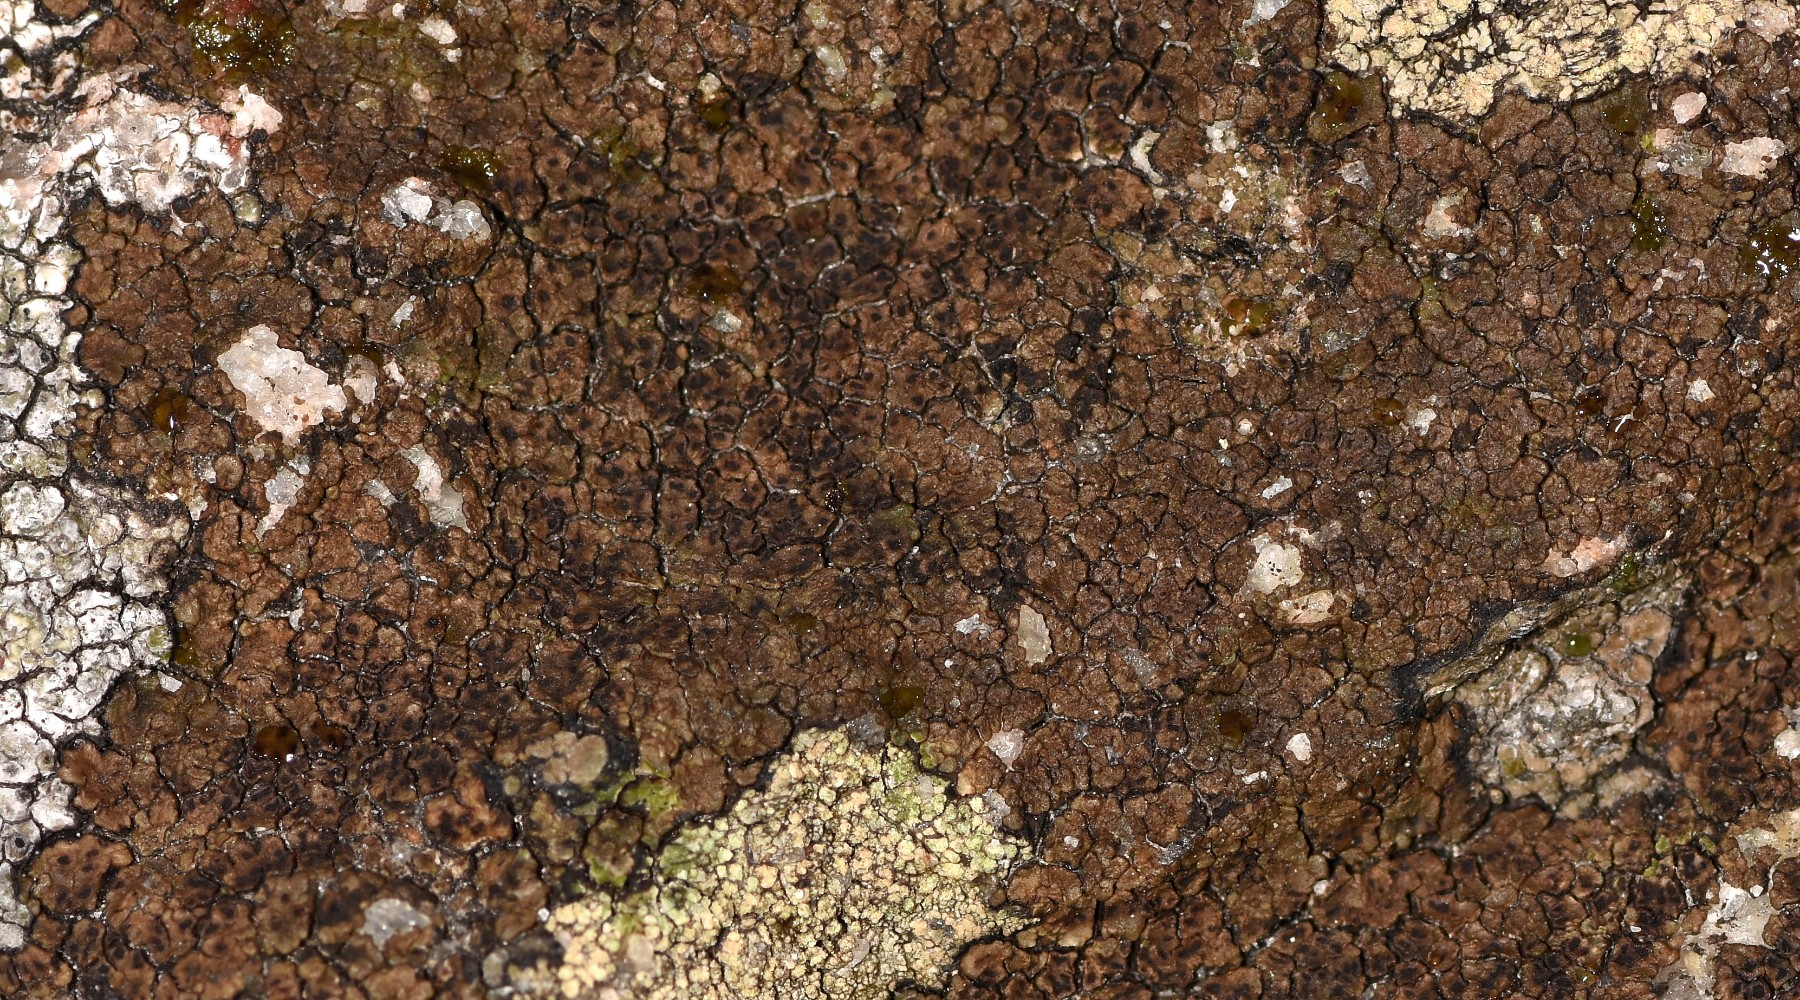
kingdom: Fungi
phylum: Ascomycota
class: Lecanoromycetes
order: Acarosporales
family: Acarosporaceae
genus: Acarospora
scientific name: Acarospora fuscata
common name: brun småsporelav
